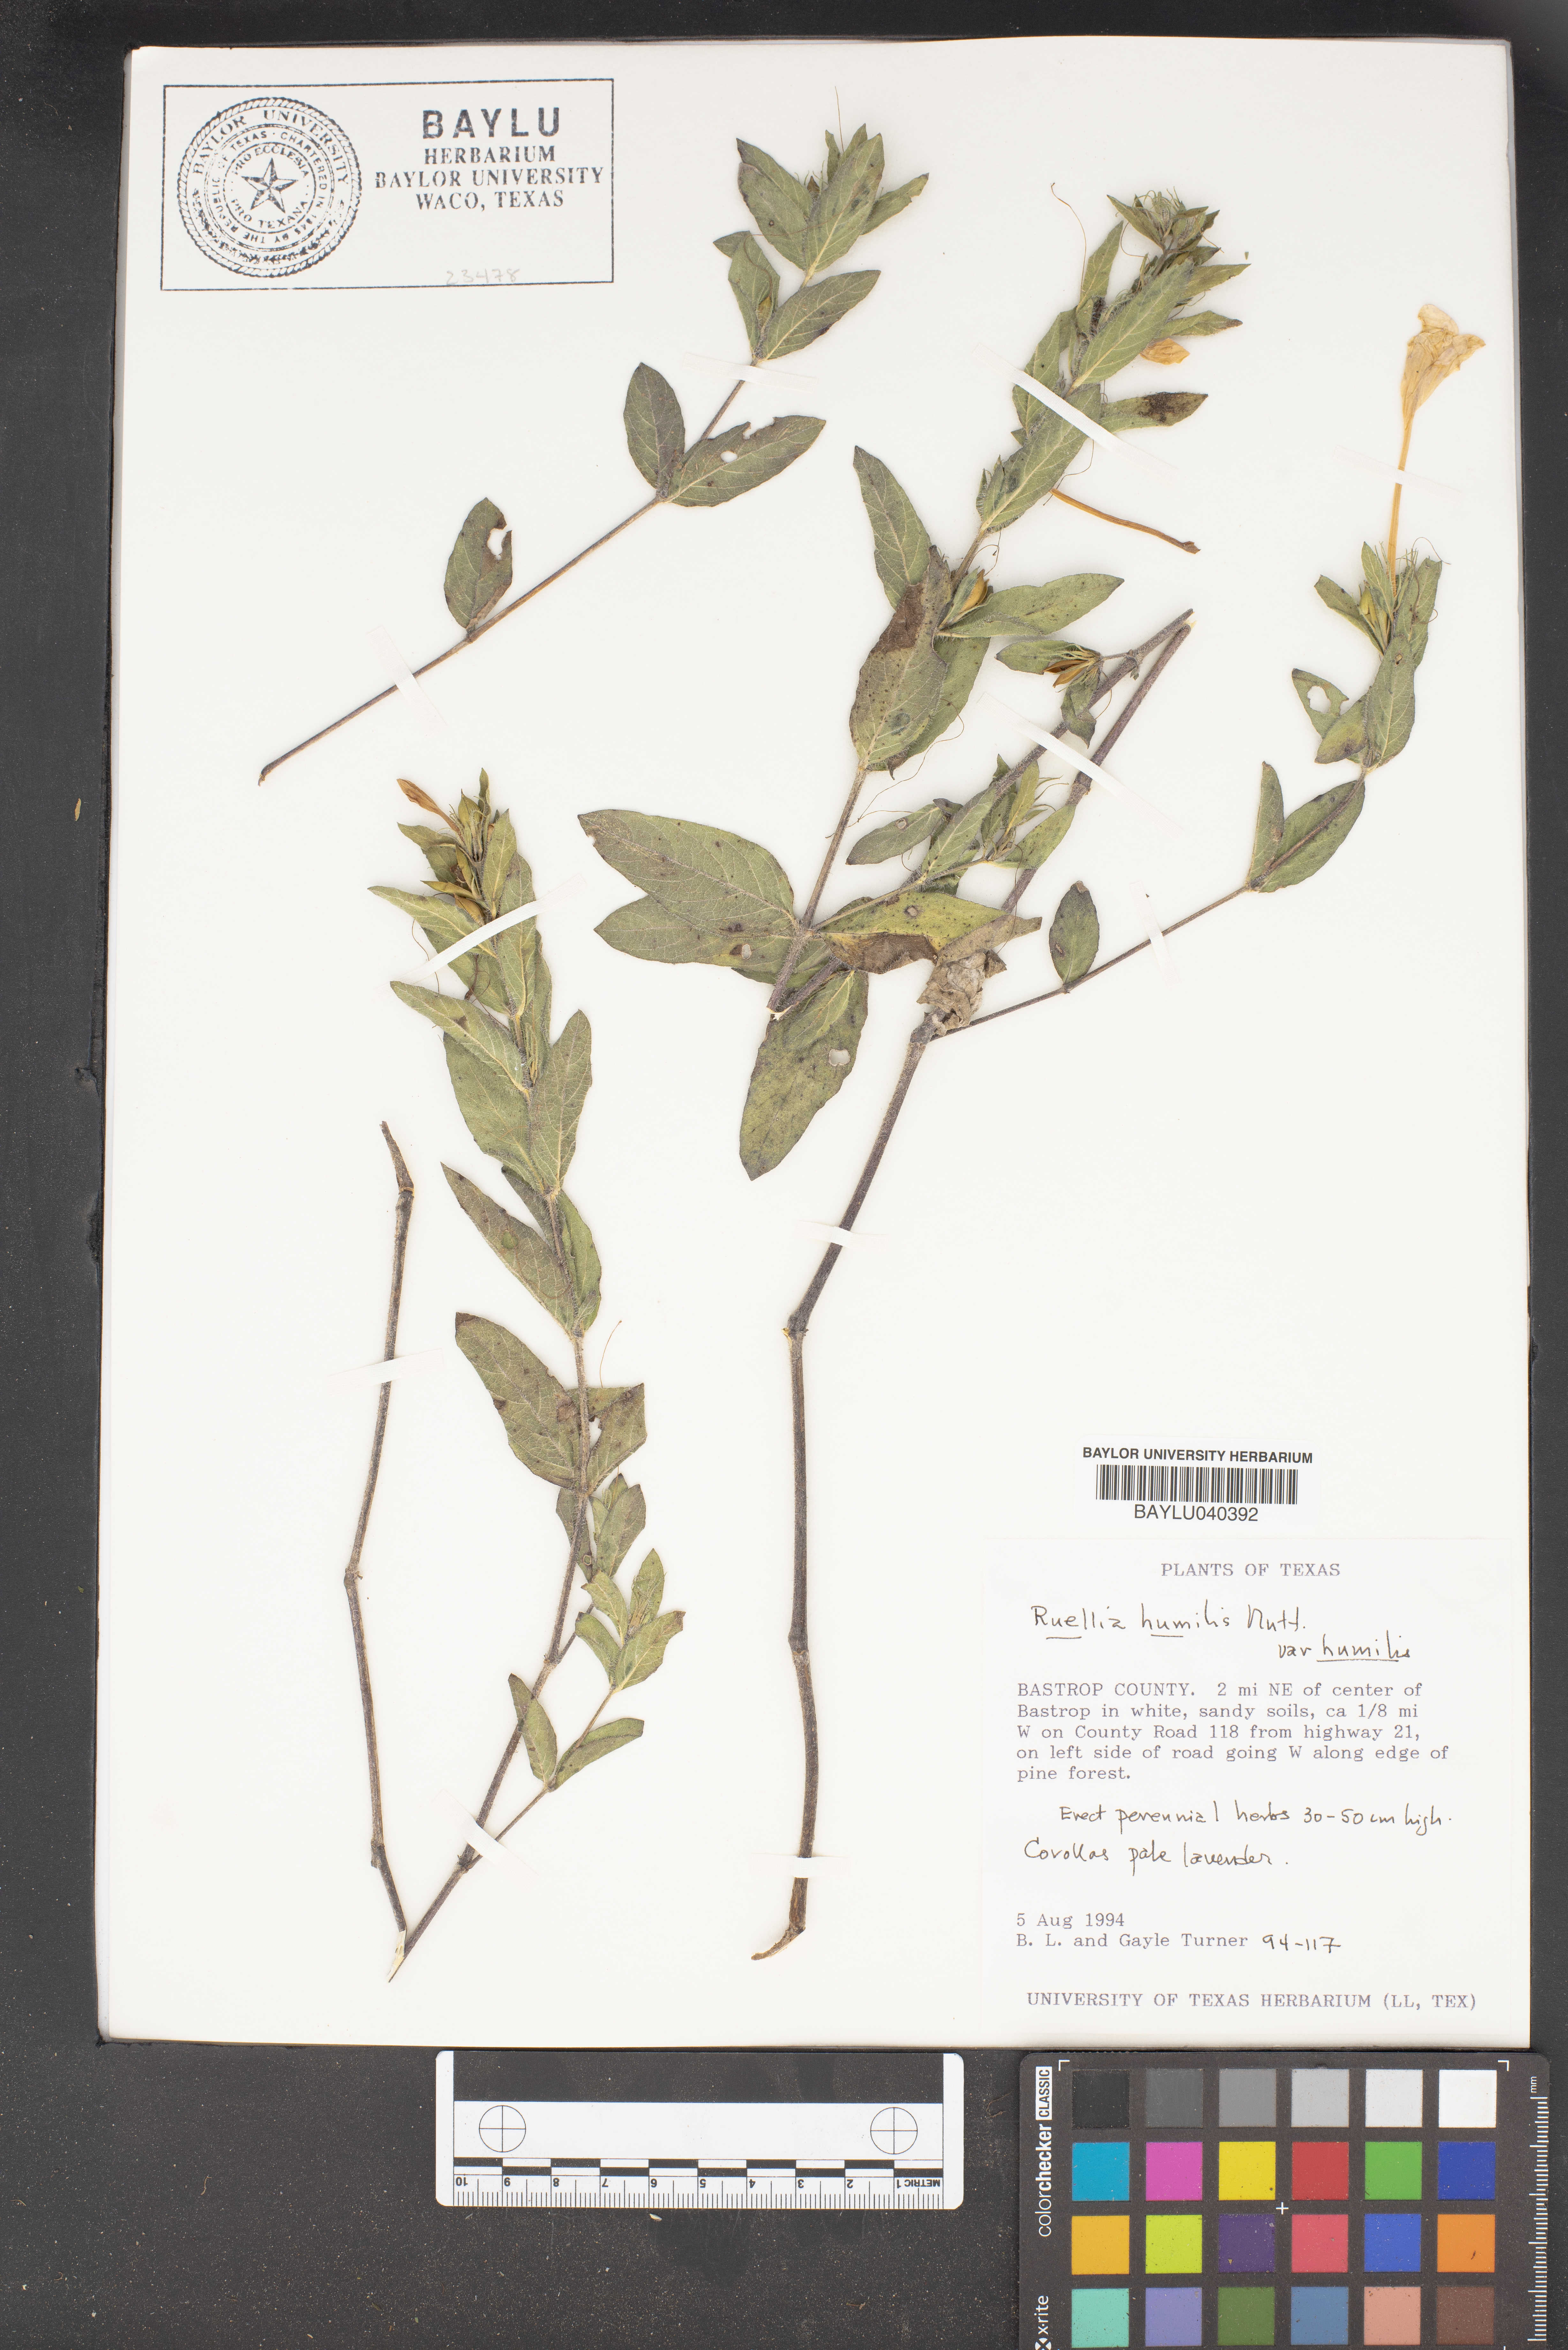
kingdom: Plantae
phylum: Tracheophyta
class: Magnoliopsida
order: Lamiales
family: Acanthaceae
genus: Ruellia
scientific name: Ruellia humilis
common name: Fringe-leaf ruellia
